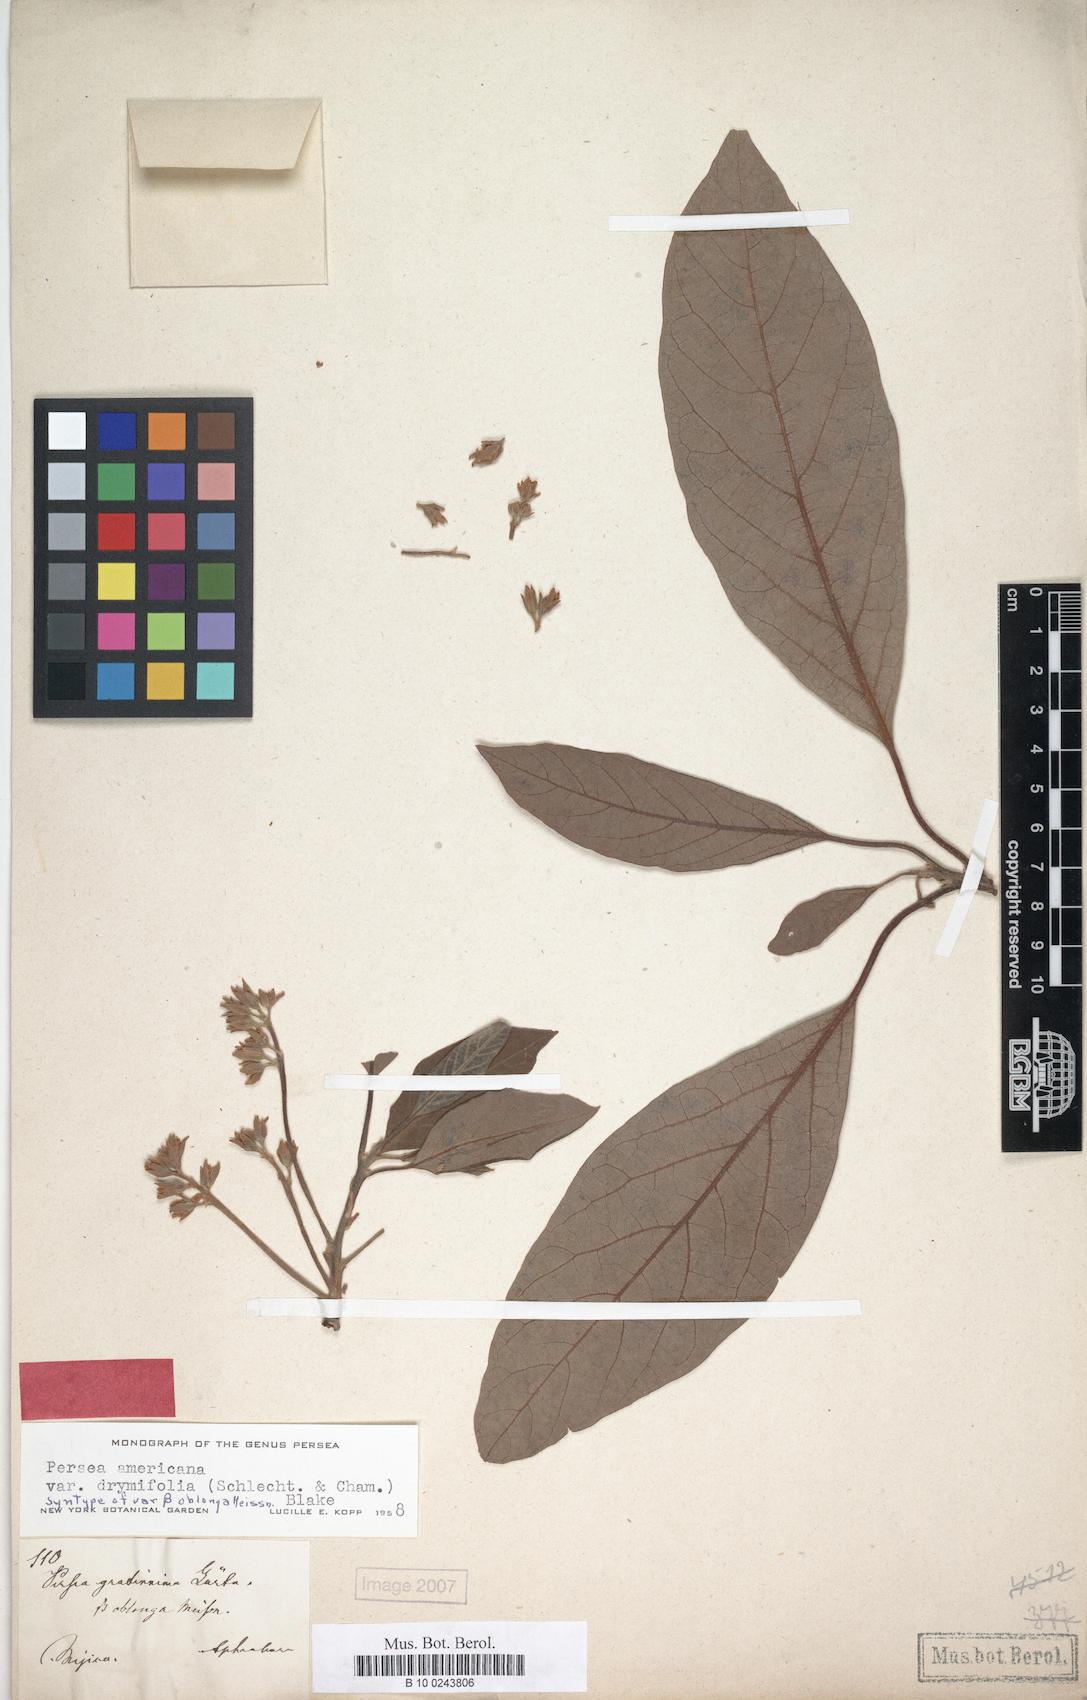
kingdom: Plantae
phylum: Tracheophyta
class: Magnoliopsida
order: Laurales
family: Lauraceae
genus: Persea
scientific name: Persea americana
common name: Avocado
